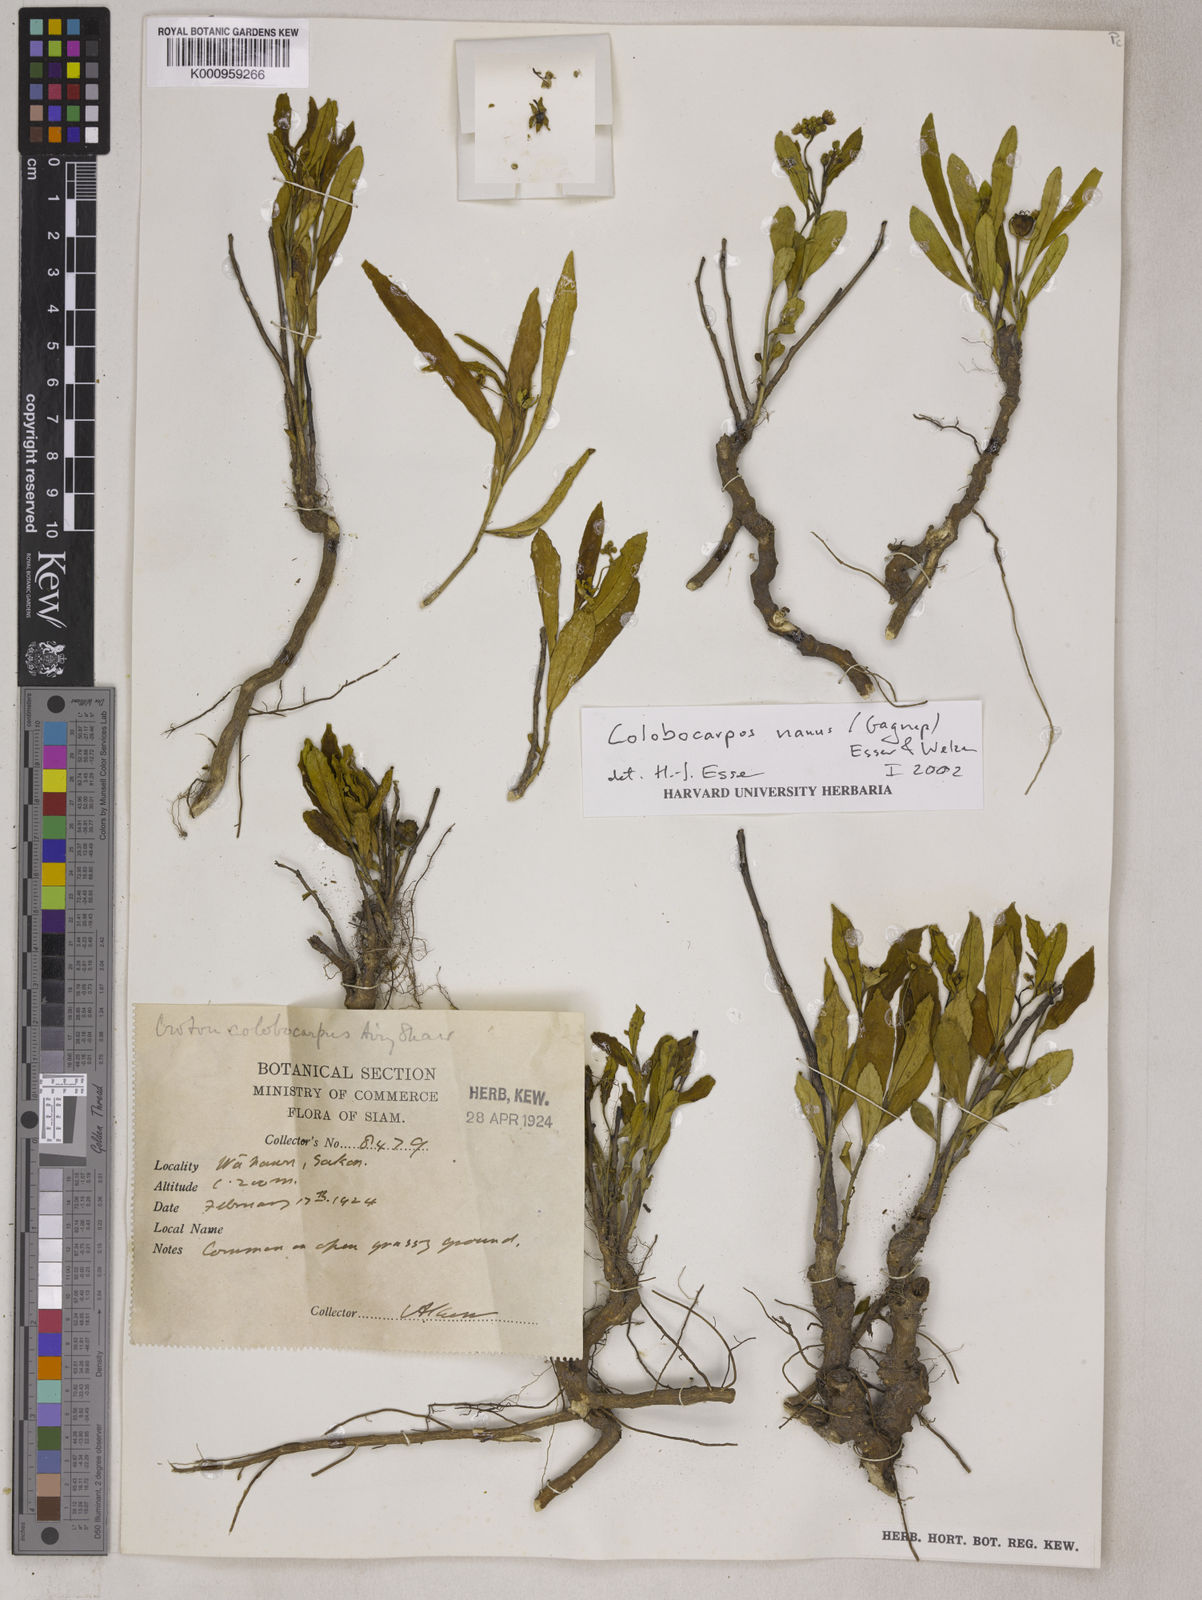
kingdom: Plantae
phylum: Tracheophyta
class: Magnoliopsida
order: Malpighiales
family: Euphorbiaceae
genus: Colobocarpos
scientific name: Colobocarpos nanus
